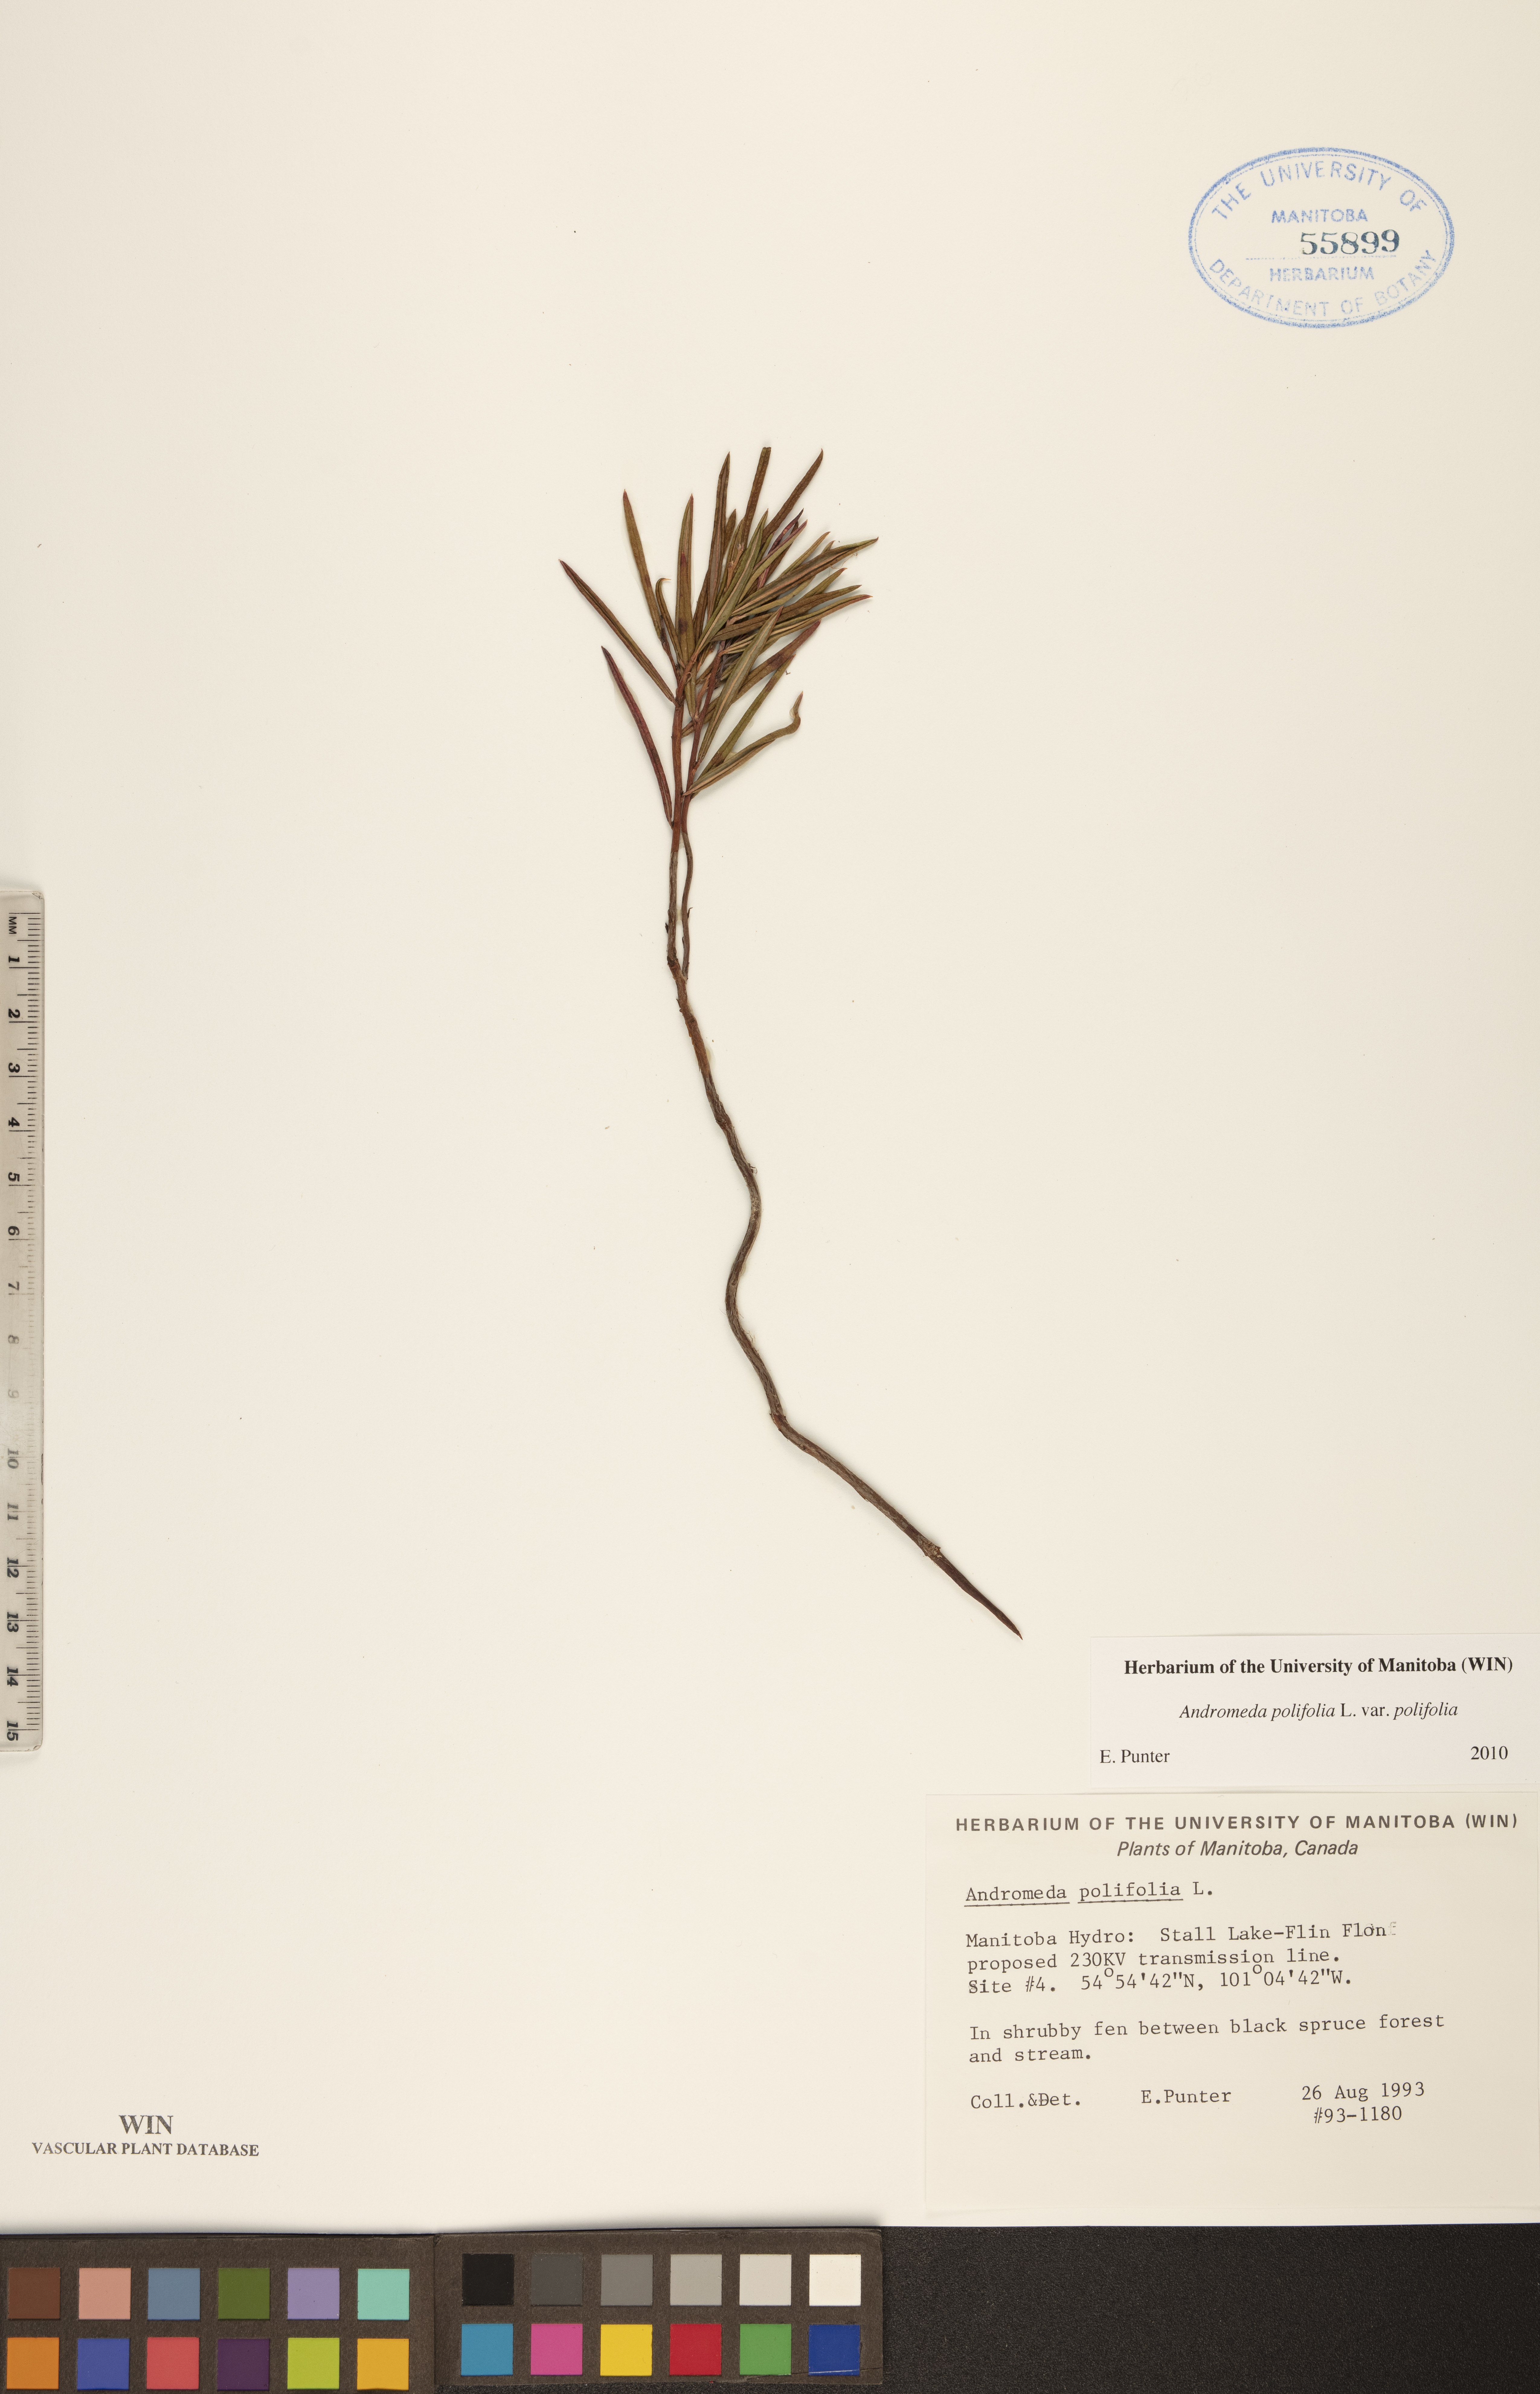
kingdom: Plantae
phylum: Tracheophyta
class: Magnoliopsida
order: Ericales
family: Ericaceae
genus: Andromeda
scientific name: Andromeda polifolia
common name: Bog-rosemary
